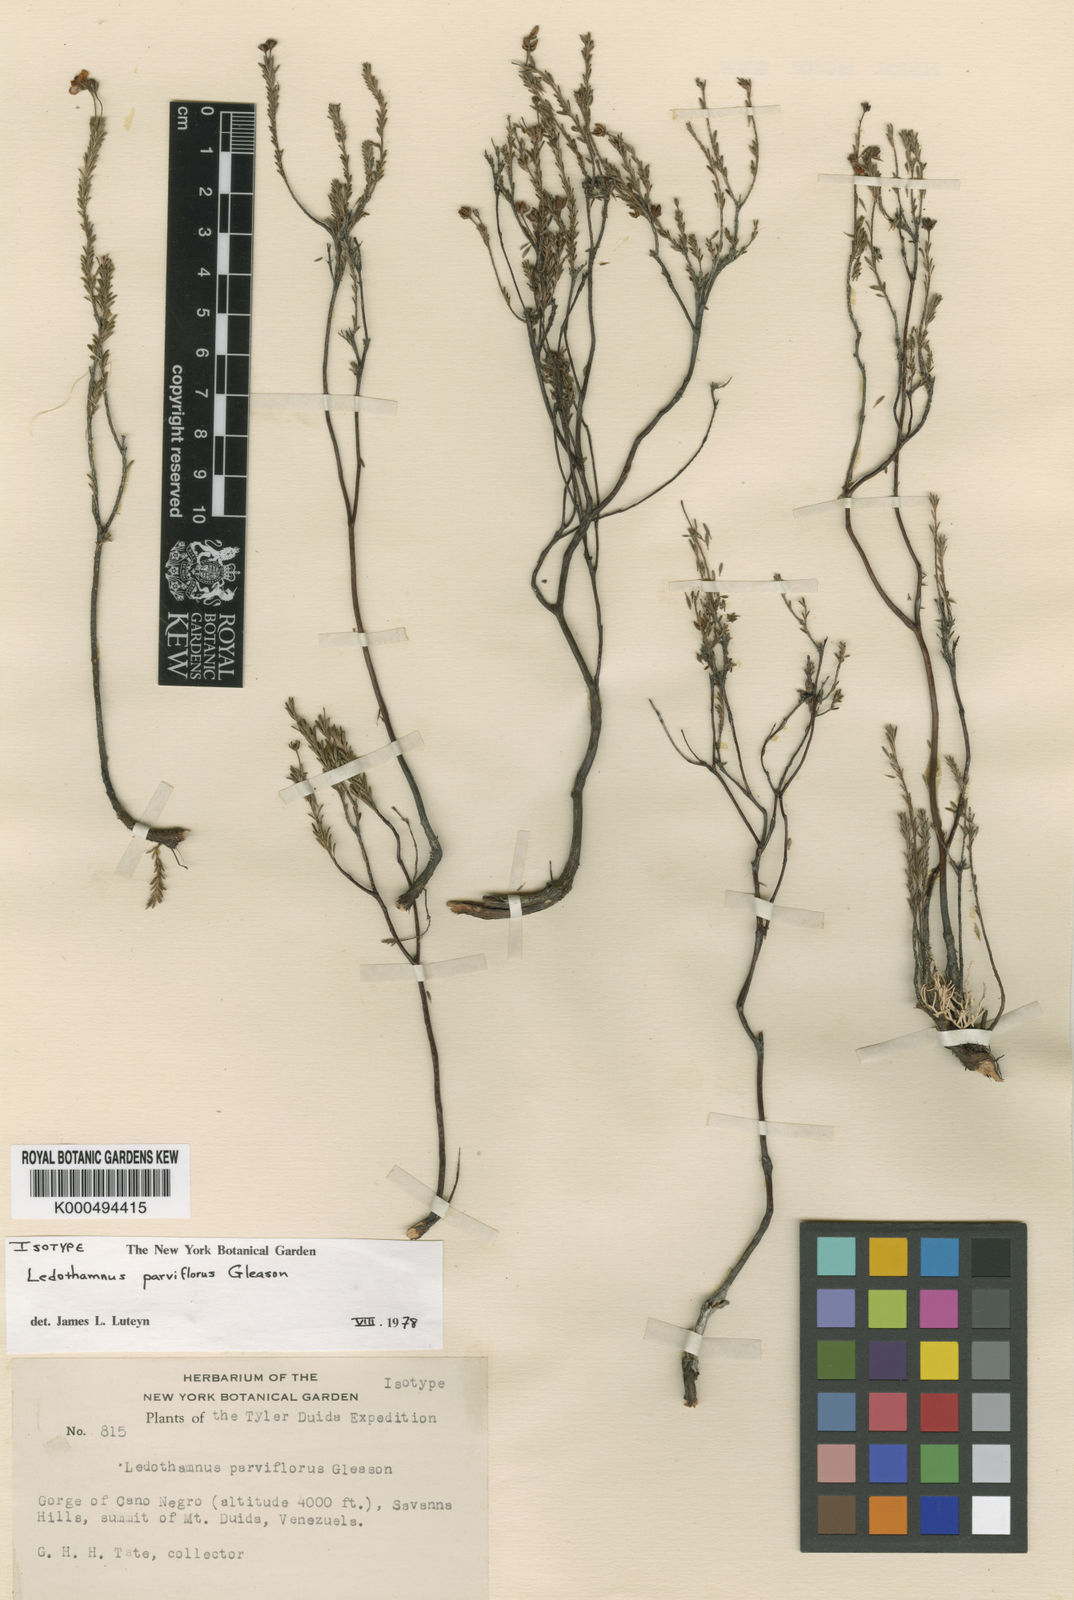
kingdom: Plantae
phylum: Tracheophyta
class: Magnoliopsida
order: Ericales
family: Ericaceae
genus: Ledothamnus
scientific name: Ledothamnus parviflorus
